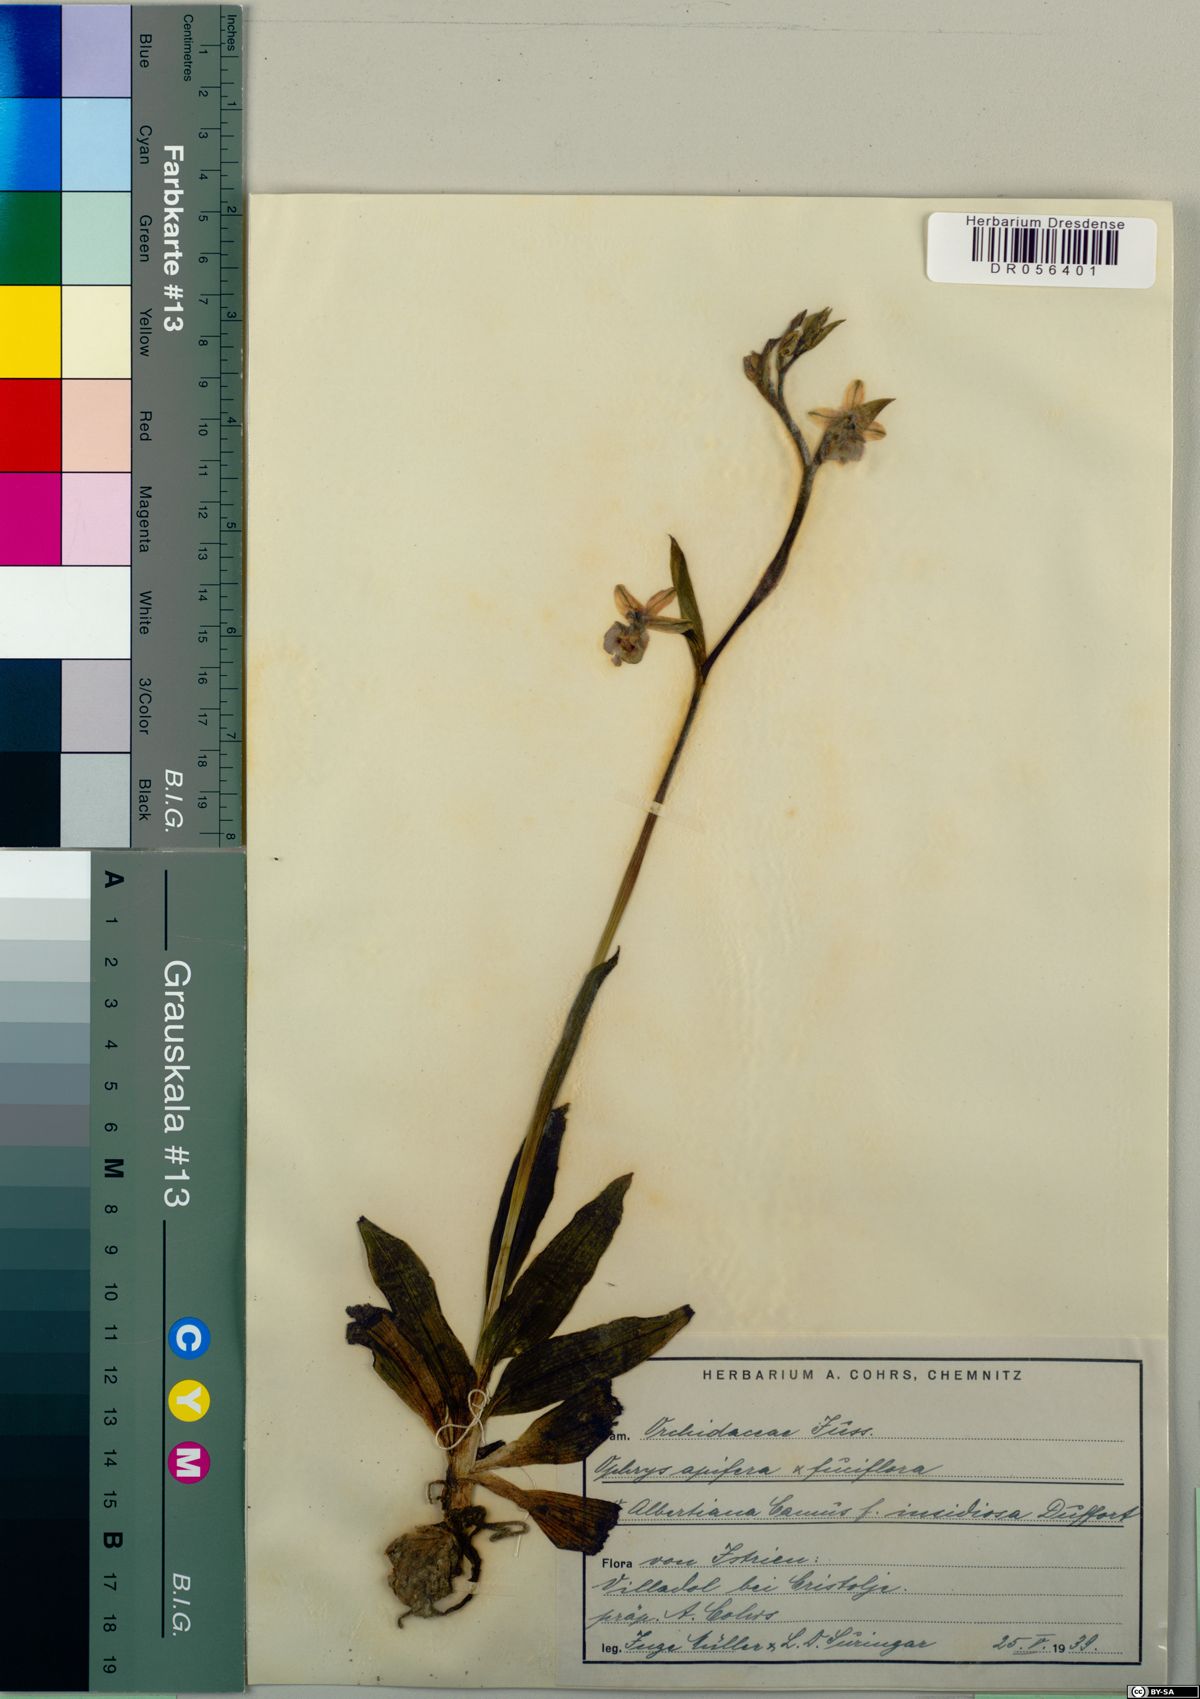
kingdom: Plantae
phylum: Tracheophyta
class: Liliopsida
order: Asparagales
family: Orchidaceae
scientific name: Orchidaceae
